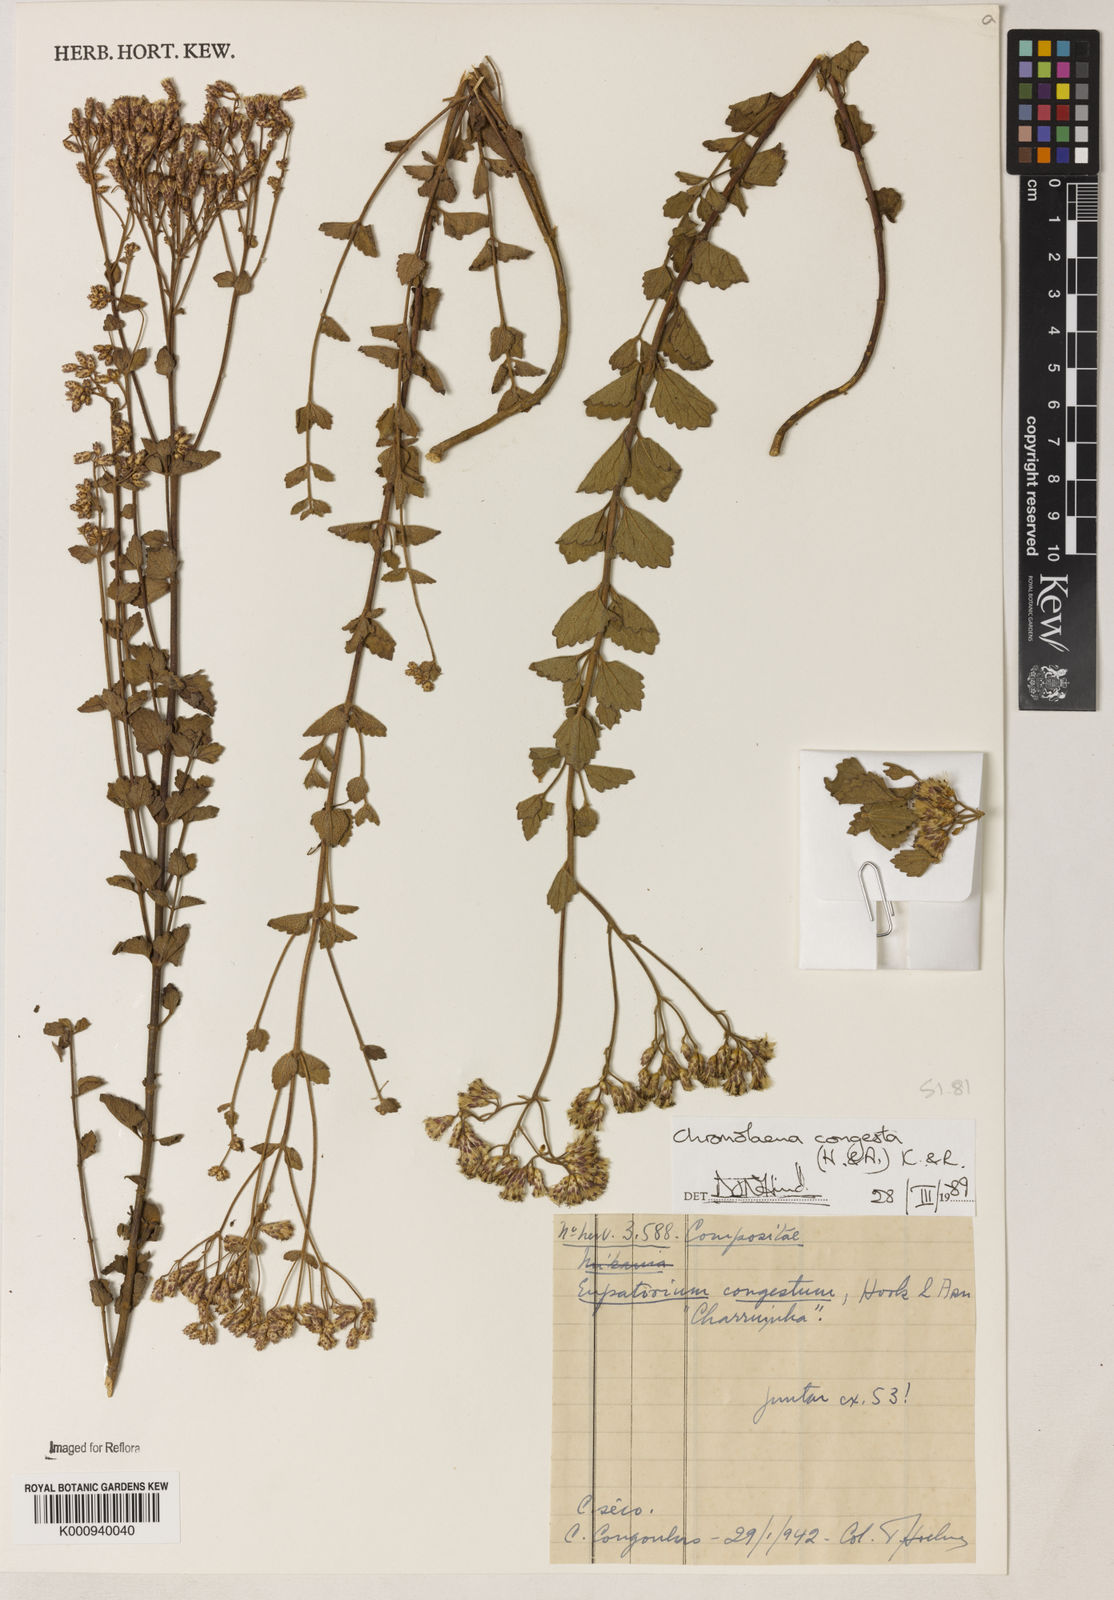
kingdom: Plantae
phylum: Tracheophyta
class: Magnoliopsida
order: Asterales
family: Asteraceae
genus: Chromolaena
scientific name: Chromolaena congesta
